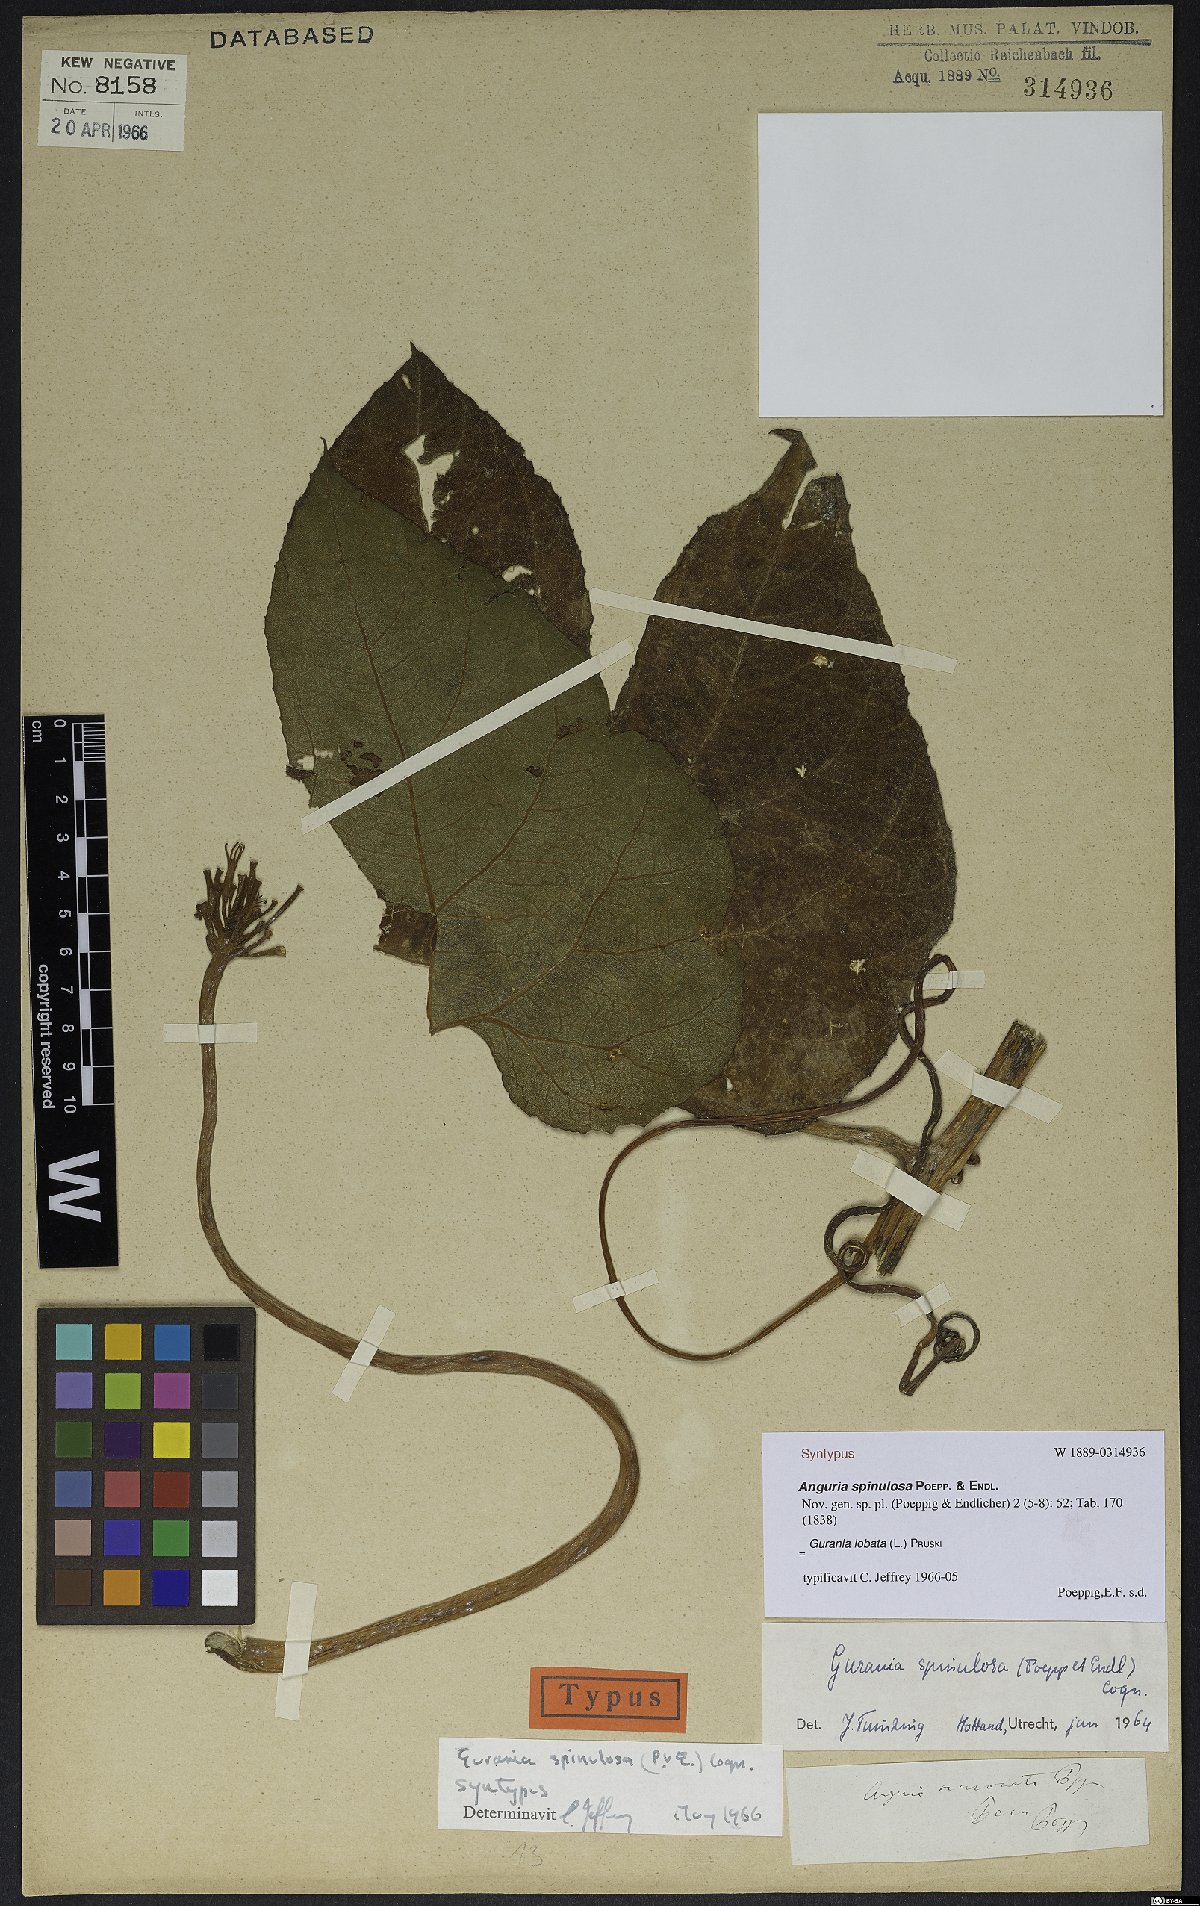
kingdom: Plantae
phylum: Tracheophyta
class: Magnoliopsida
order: Cucurbitales
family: Cucurbitaceae
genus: Gurania
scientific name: Gurania lobata
